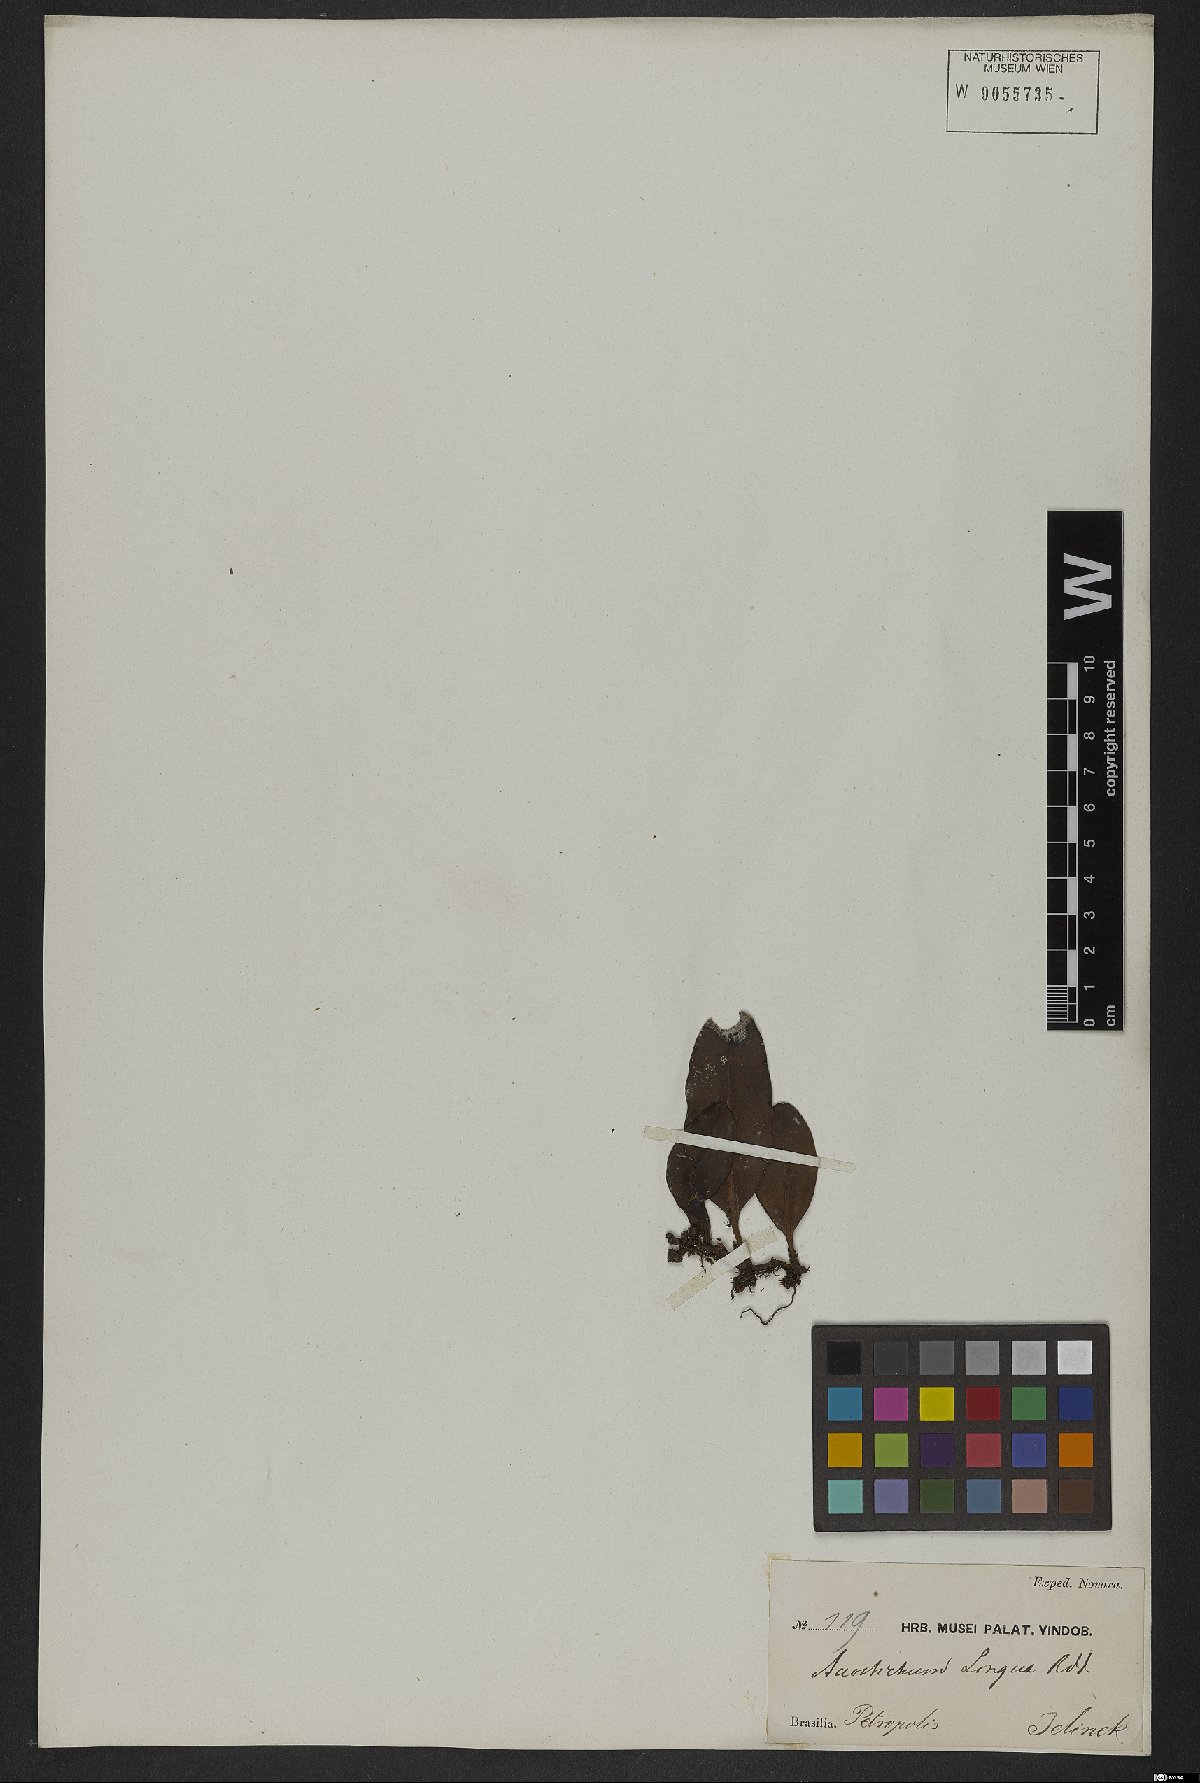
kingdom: Plantae
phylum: Tracheophyta
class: Polypodiopsida
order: Polypodiales
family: Dryopteridaceae
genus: Elaphoglossum
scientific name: Elaphoglossum brachyneuron
